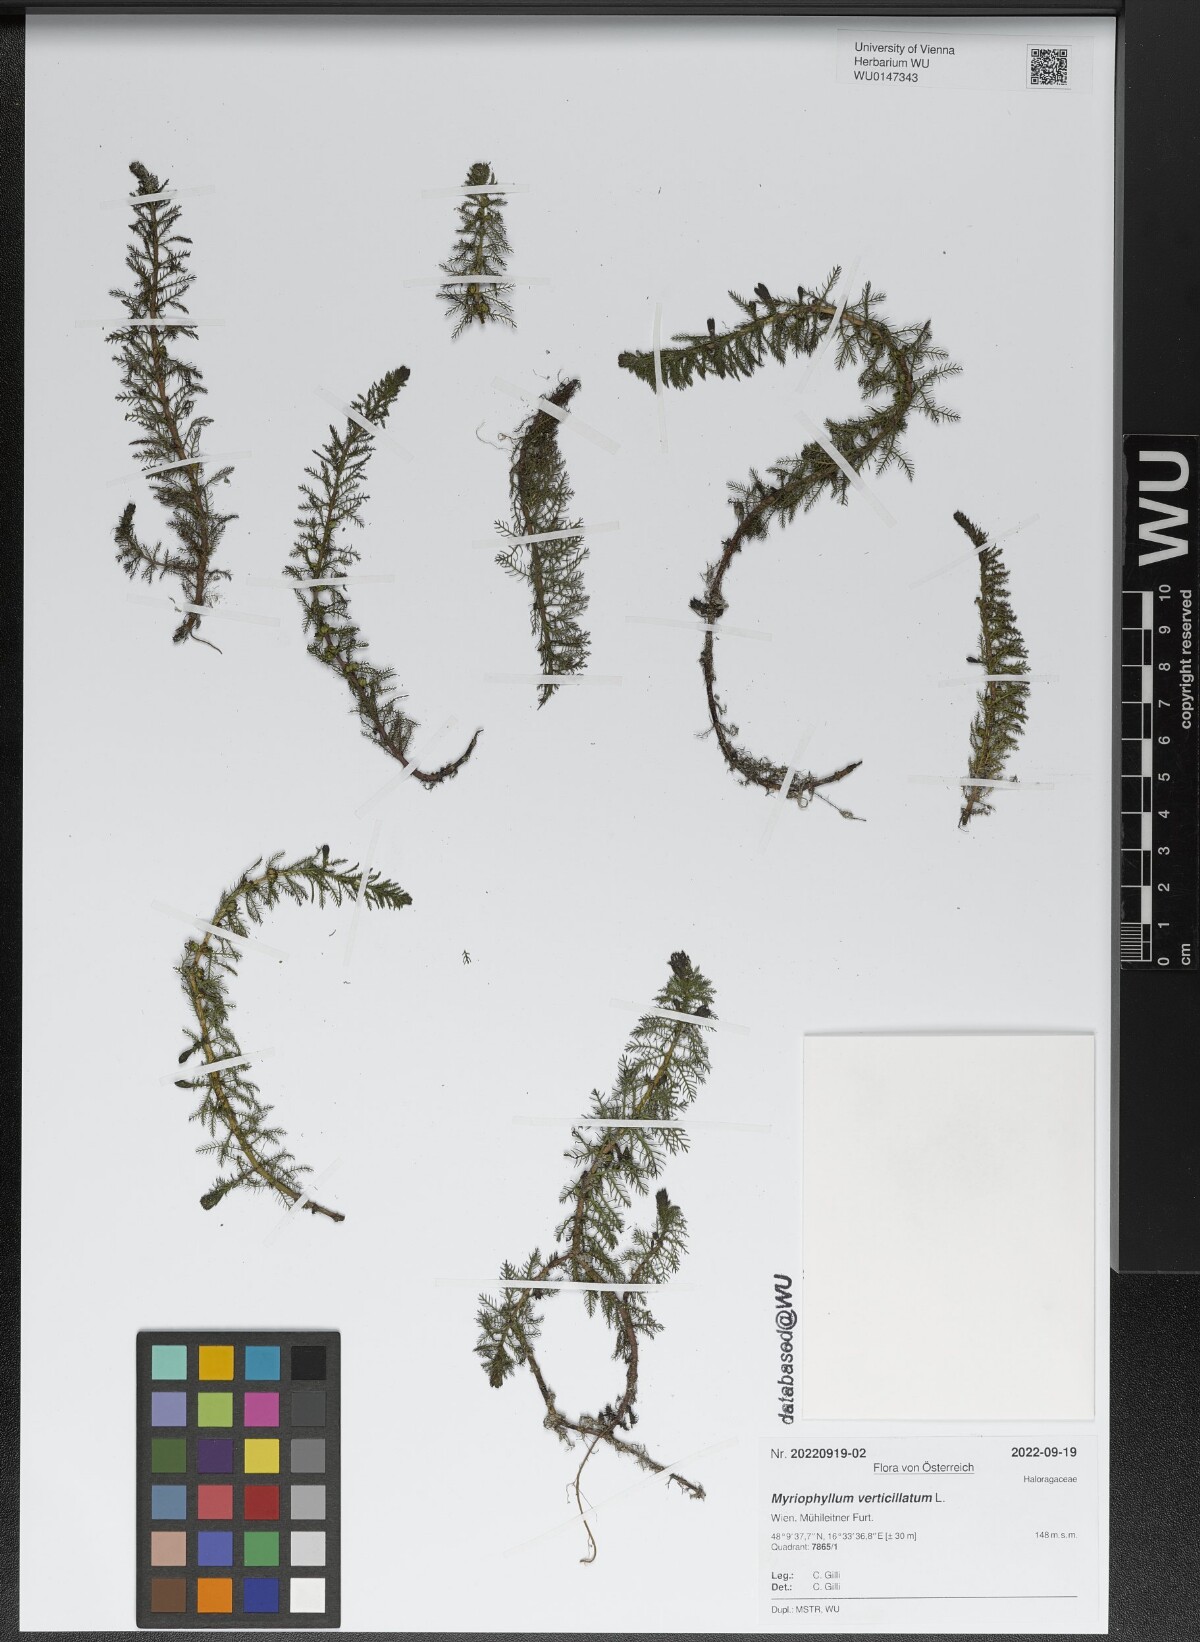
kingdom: Plantae
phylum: Tracheophyta
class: Magnoliopsida
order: Saxifragales
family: Haloragaceae
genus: Myriophyllum
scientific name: Myriophyllum verticillatum
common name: Whorled water-milfoil
